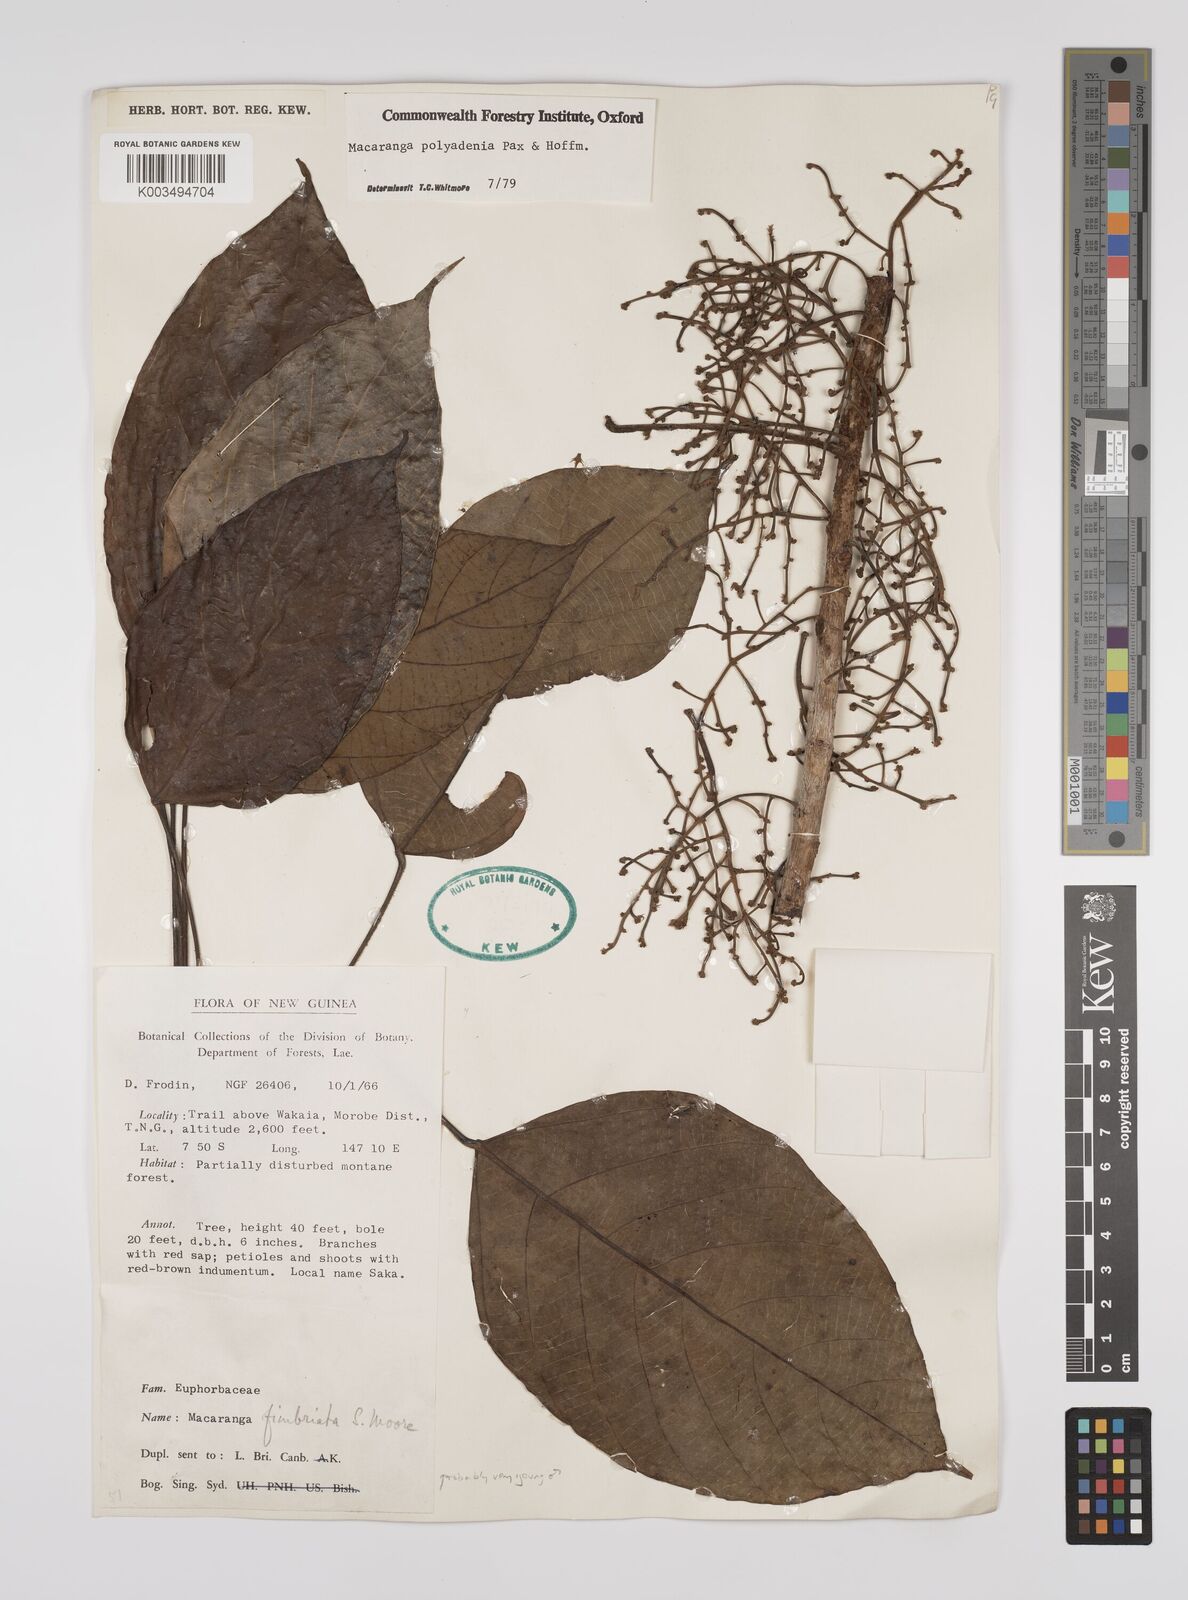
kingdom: Plantae
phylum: Tracheophyta
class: Magnoliopsida
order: Malpighiales
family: Euphorbiaceae
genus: Macaranga
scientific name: Macaranga polyadenia
